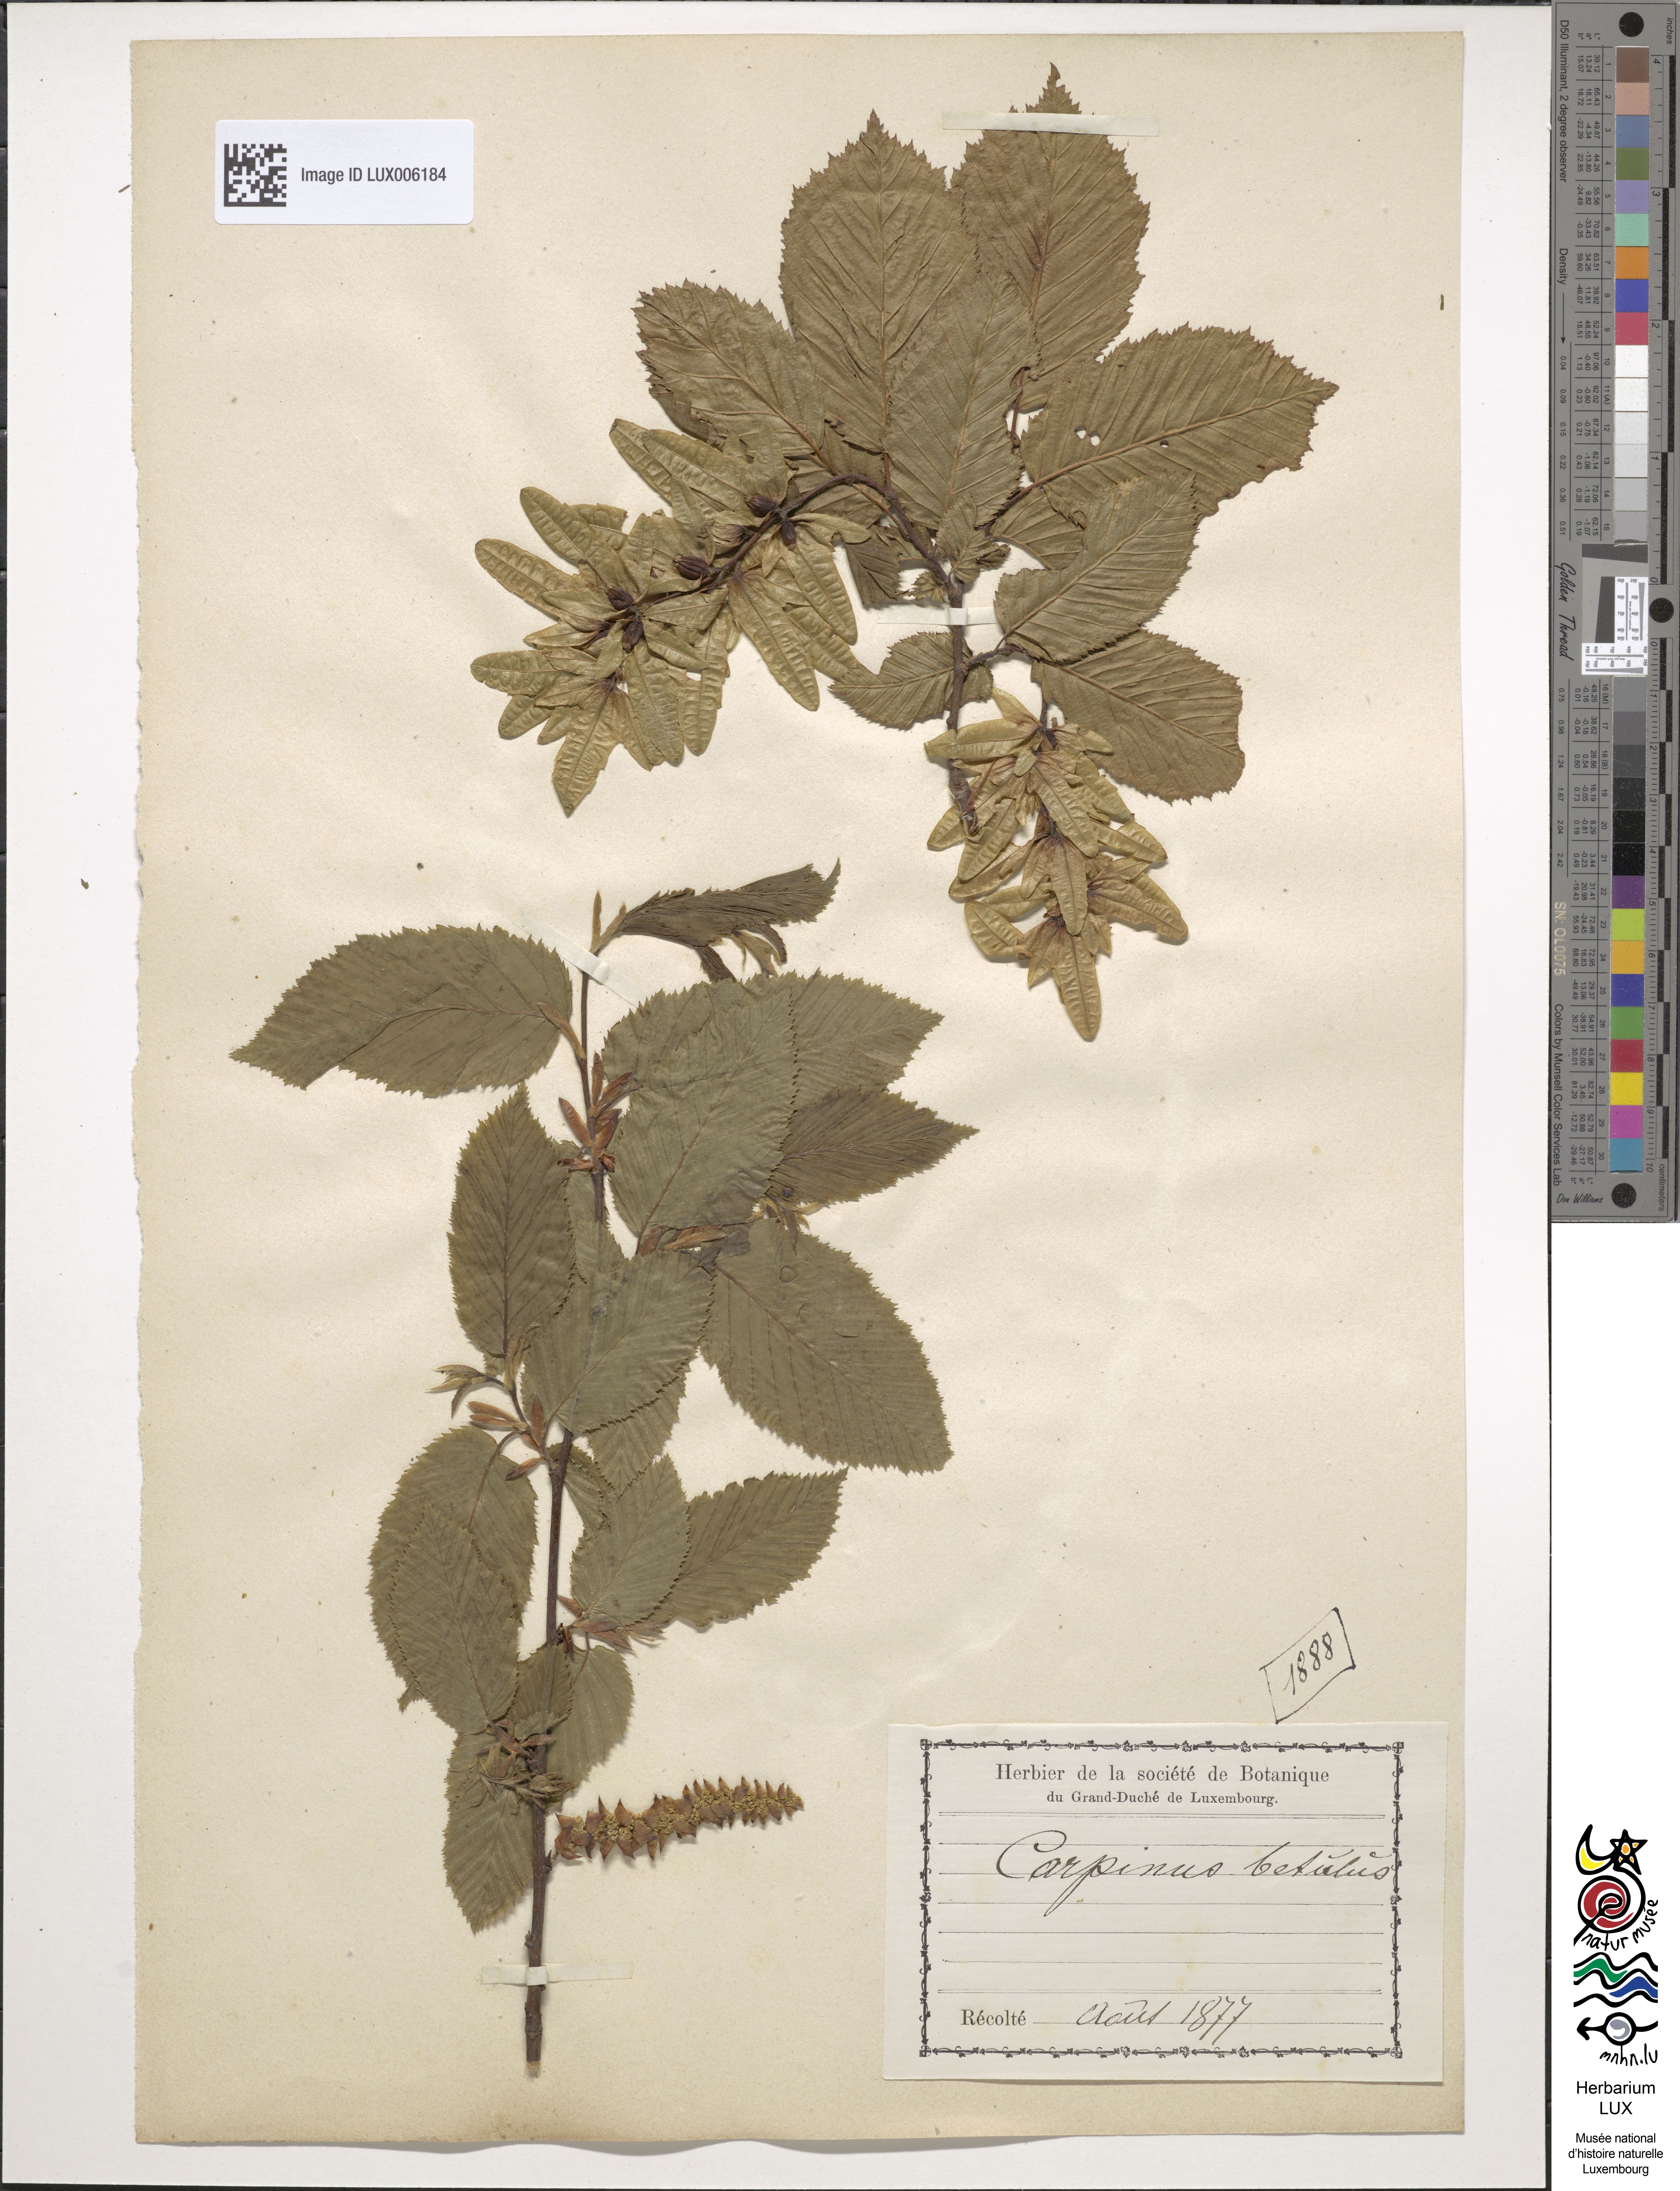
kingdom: Plantae
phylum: Tracheophyta
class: Magnoliopsida
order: Fagales
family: Betulaceae
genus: Carpinus
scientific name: Carpinus betulus
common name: Hornbeam
